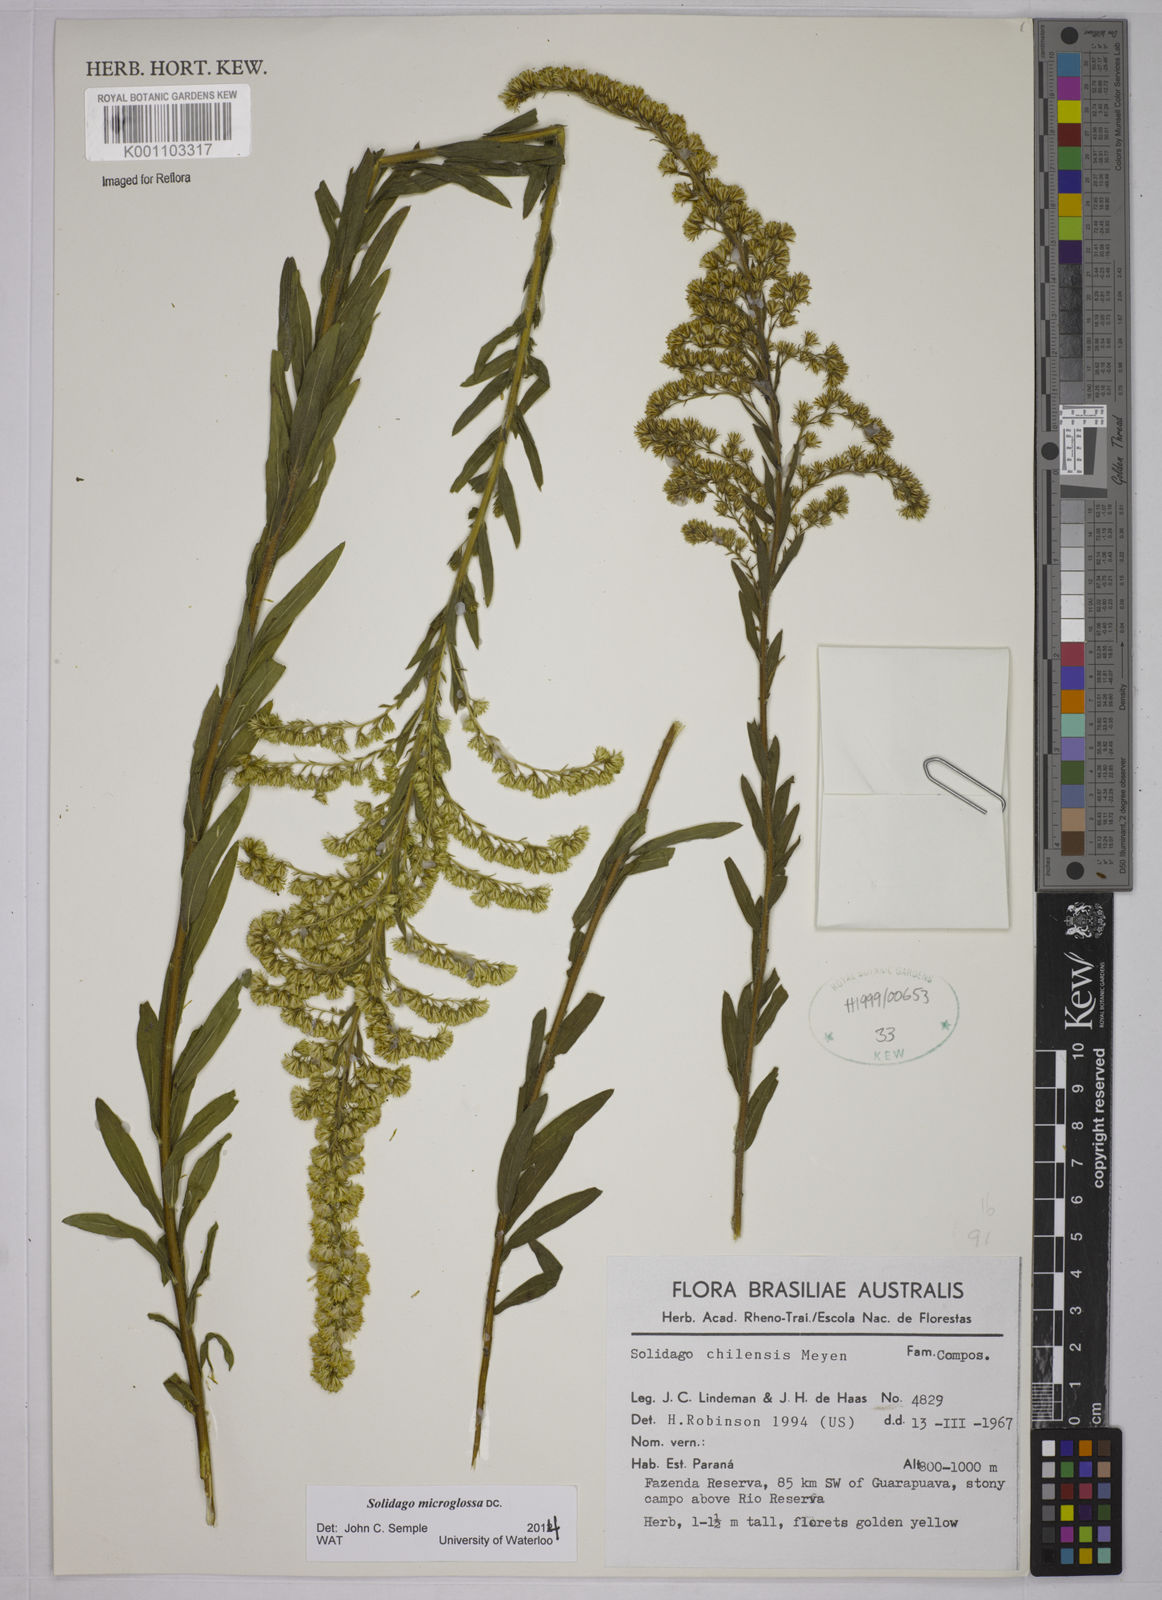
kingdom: Plantae
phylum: Tracheophyta
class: Magnoliopsida
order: Asterales
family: Asteraceae
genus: Solidago
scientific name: Solidago chilensis
